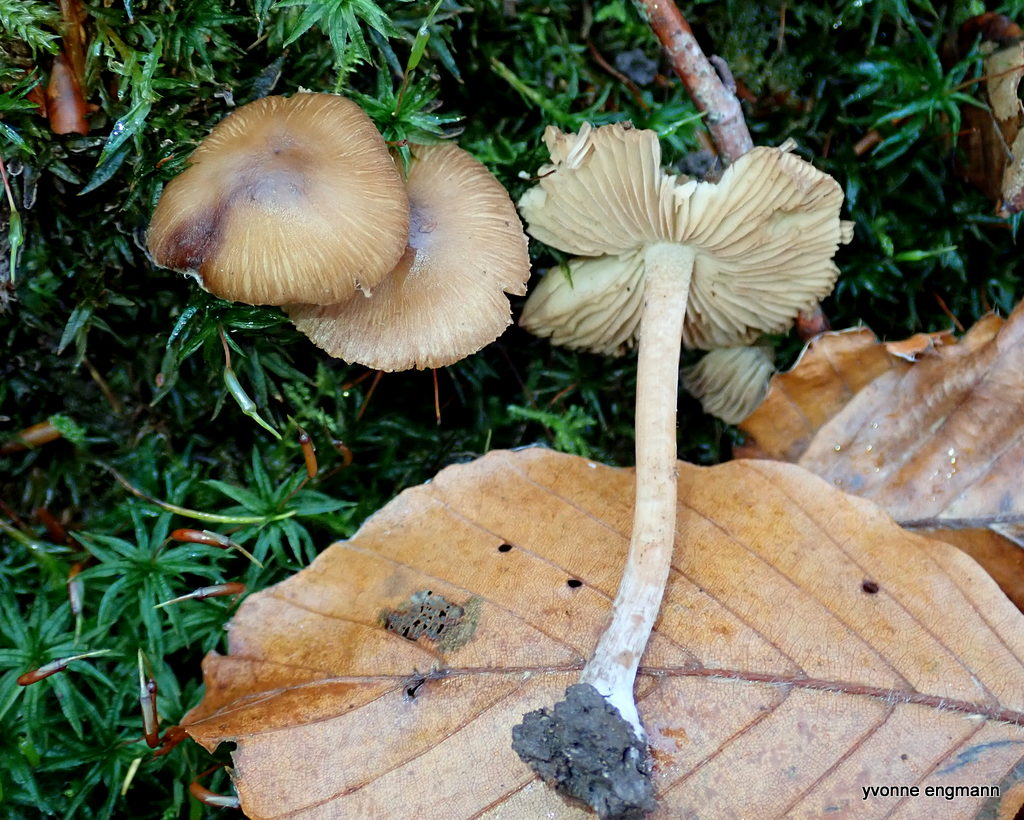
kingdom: Fungi
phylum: Basidiomycota
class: Agaricomycetes
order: Agaricales
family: Inocybaceae
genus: Inocybe
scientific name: Inocybe
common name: trævlhat
